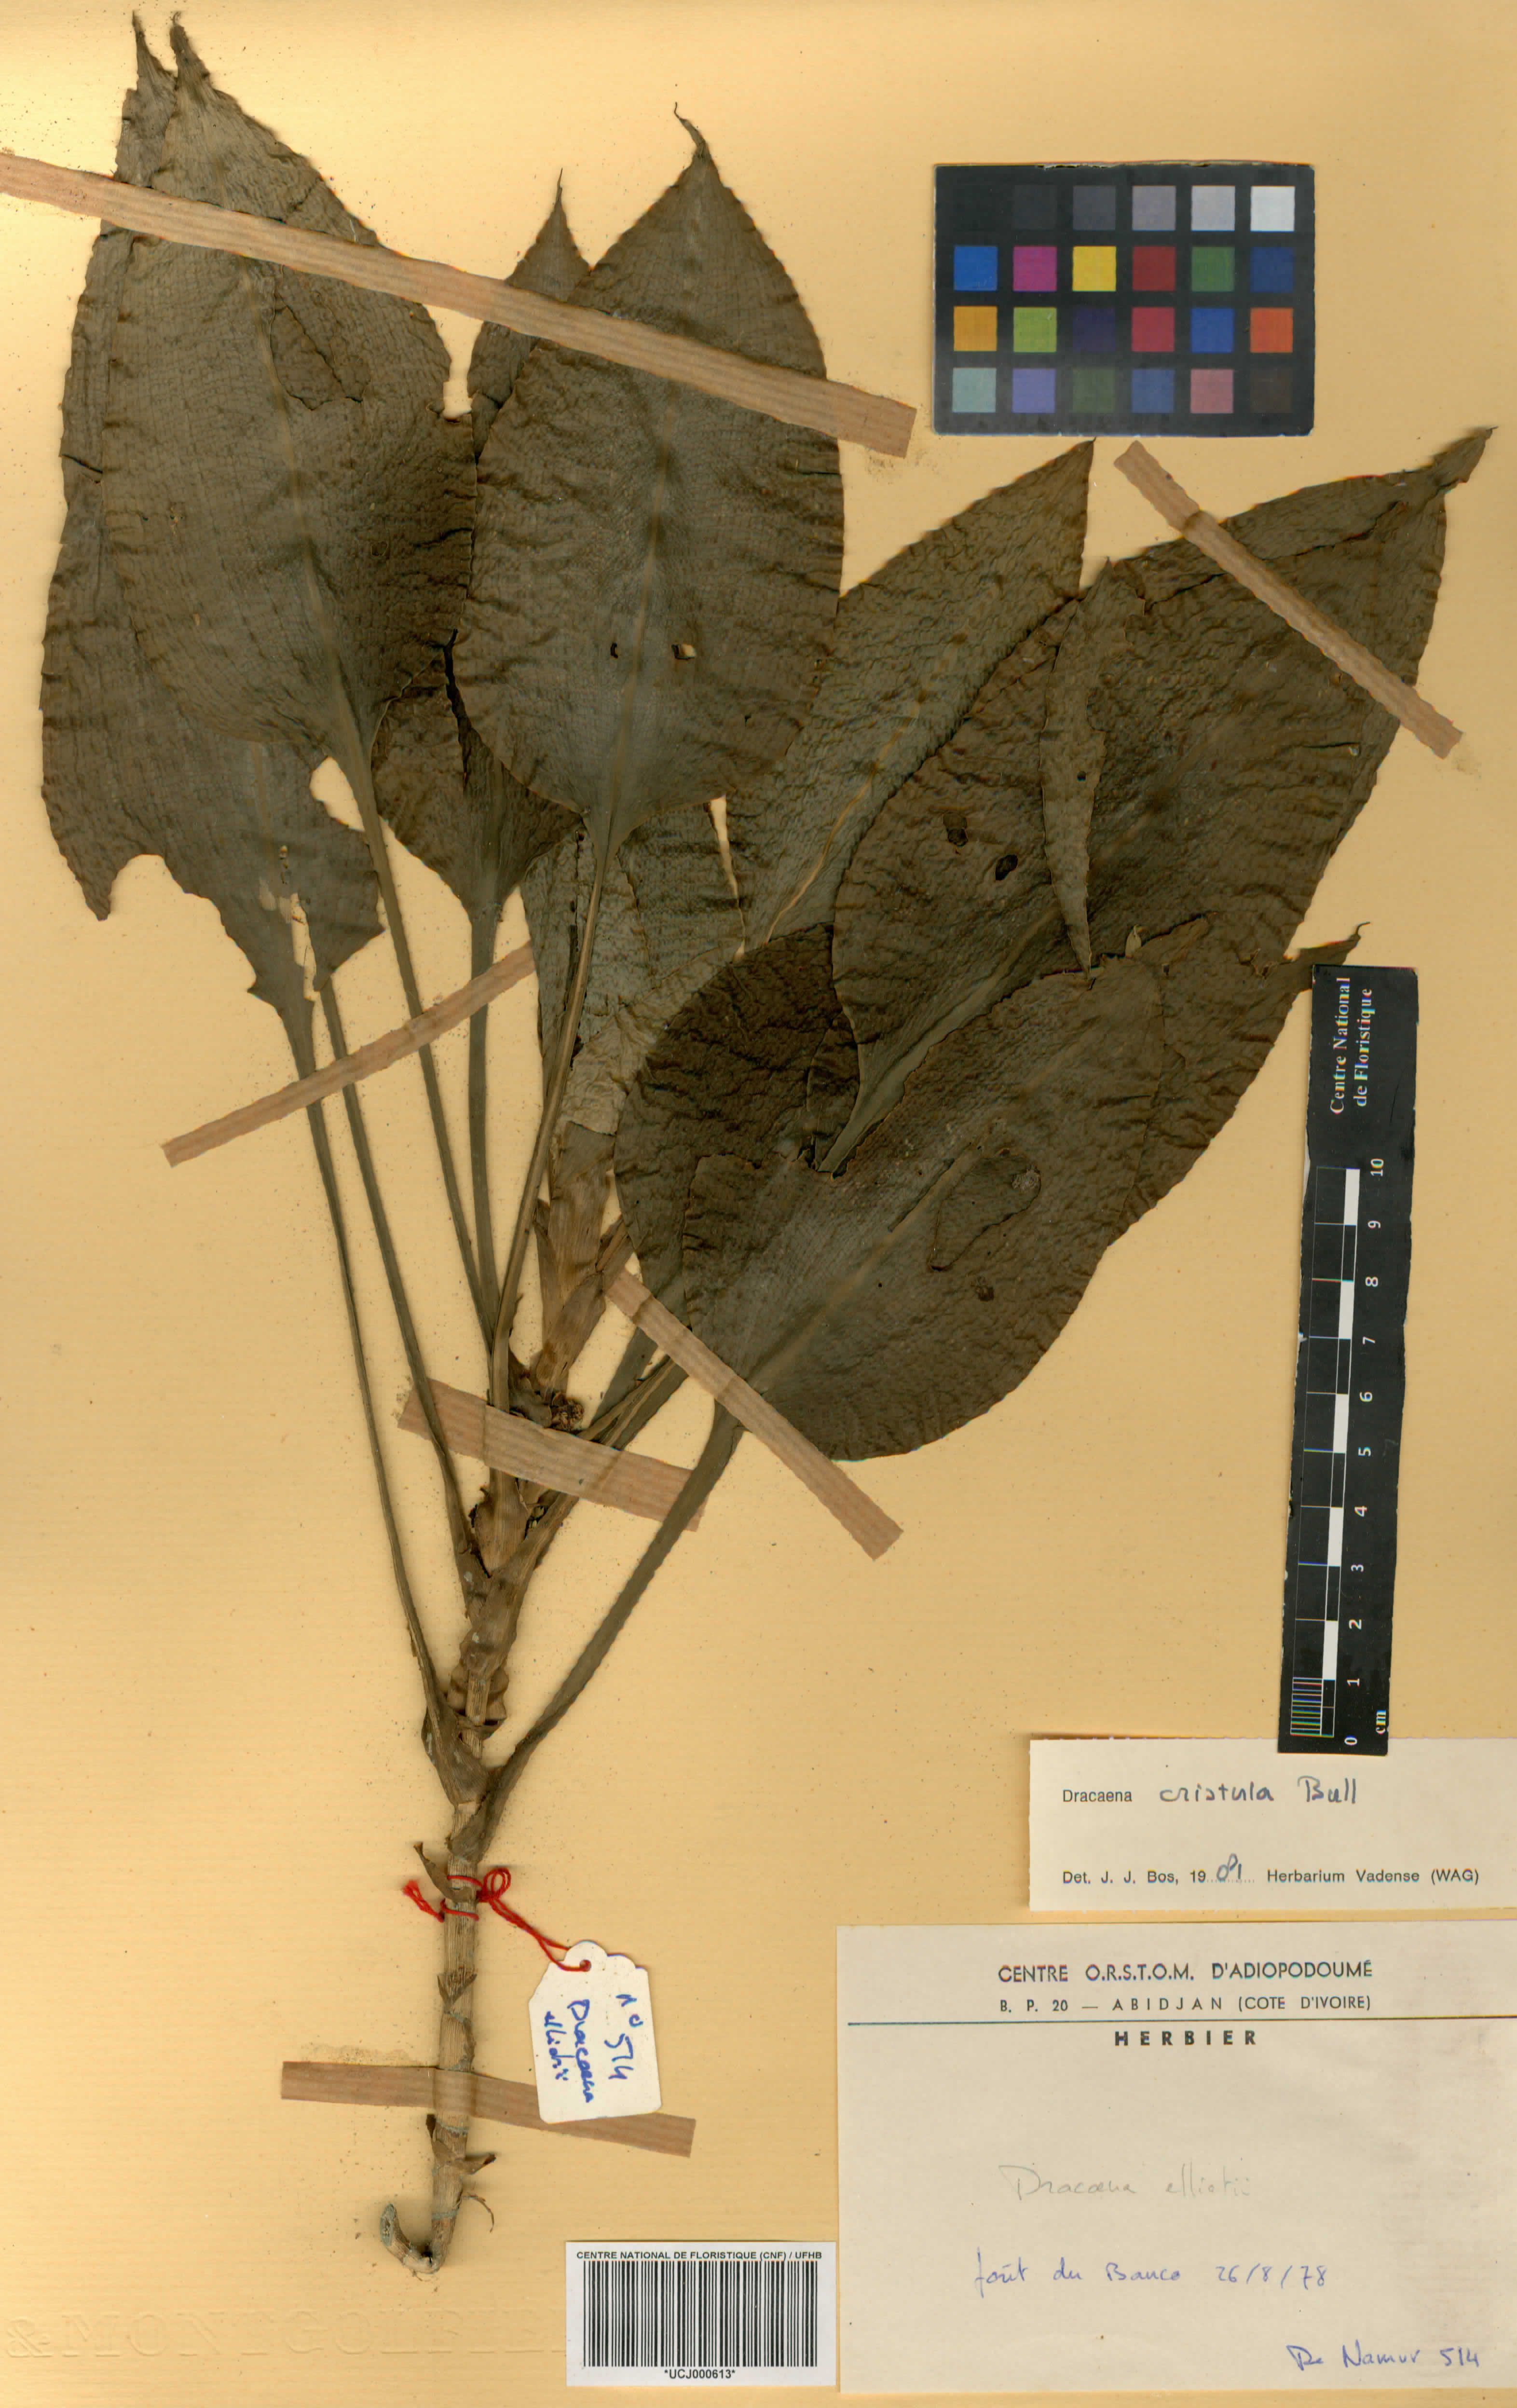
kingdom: Plantae
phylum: Tracheophyta
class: Liliopsida
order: Asparagales
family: Asparagaceae
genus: Dracaena
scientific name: Dracaena cristula
